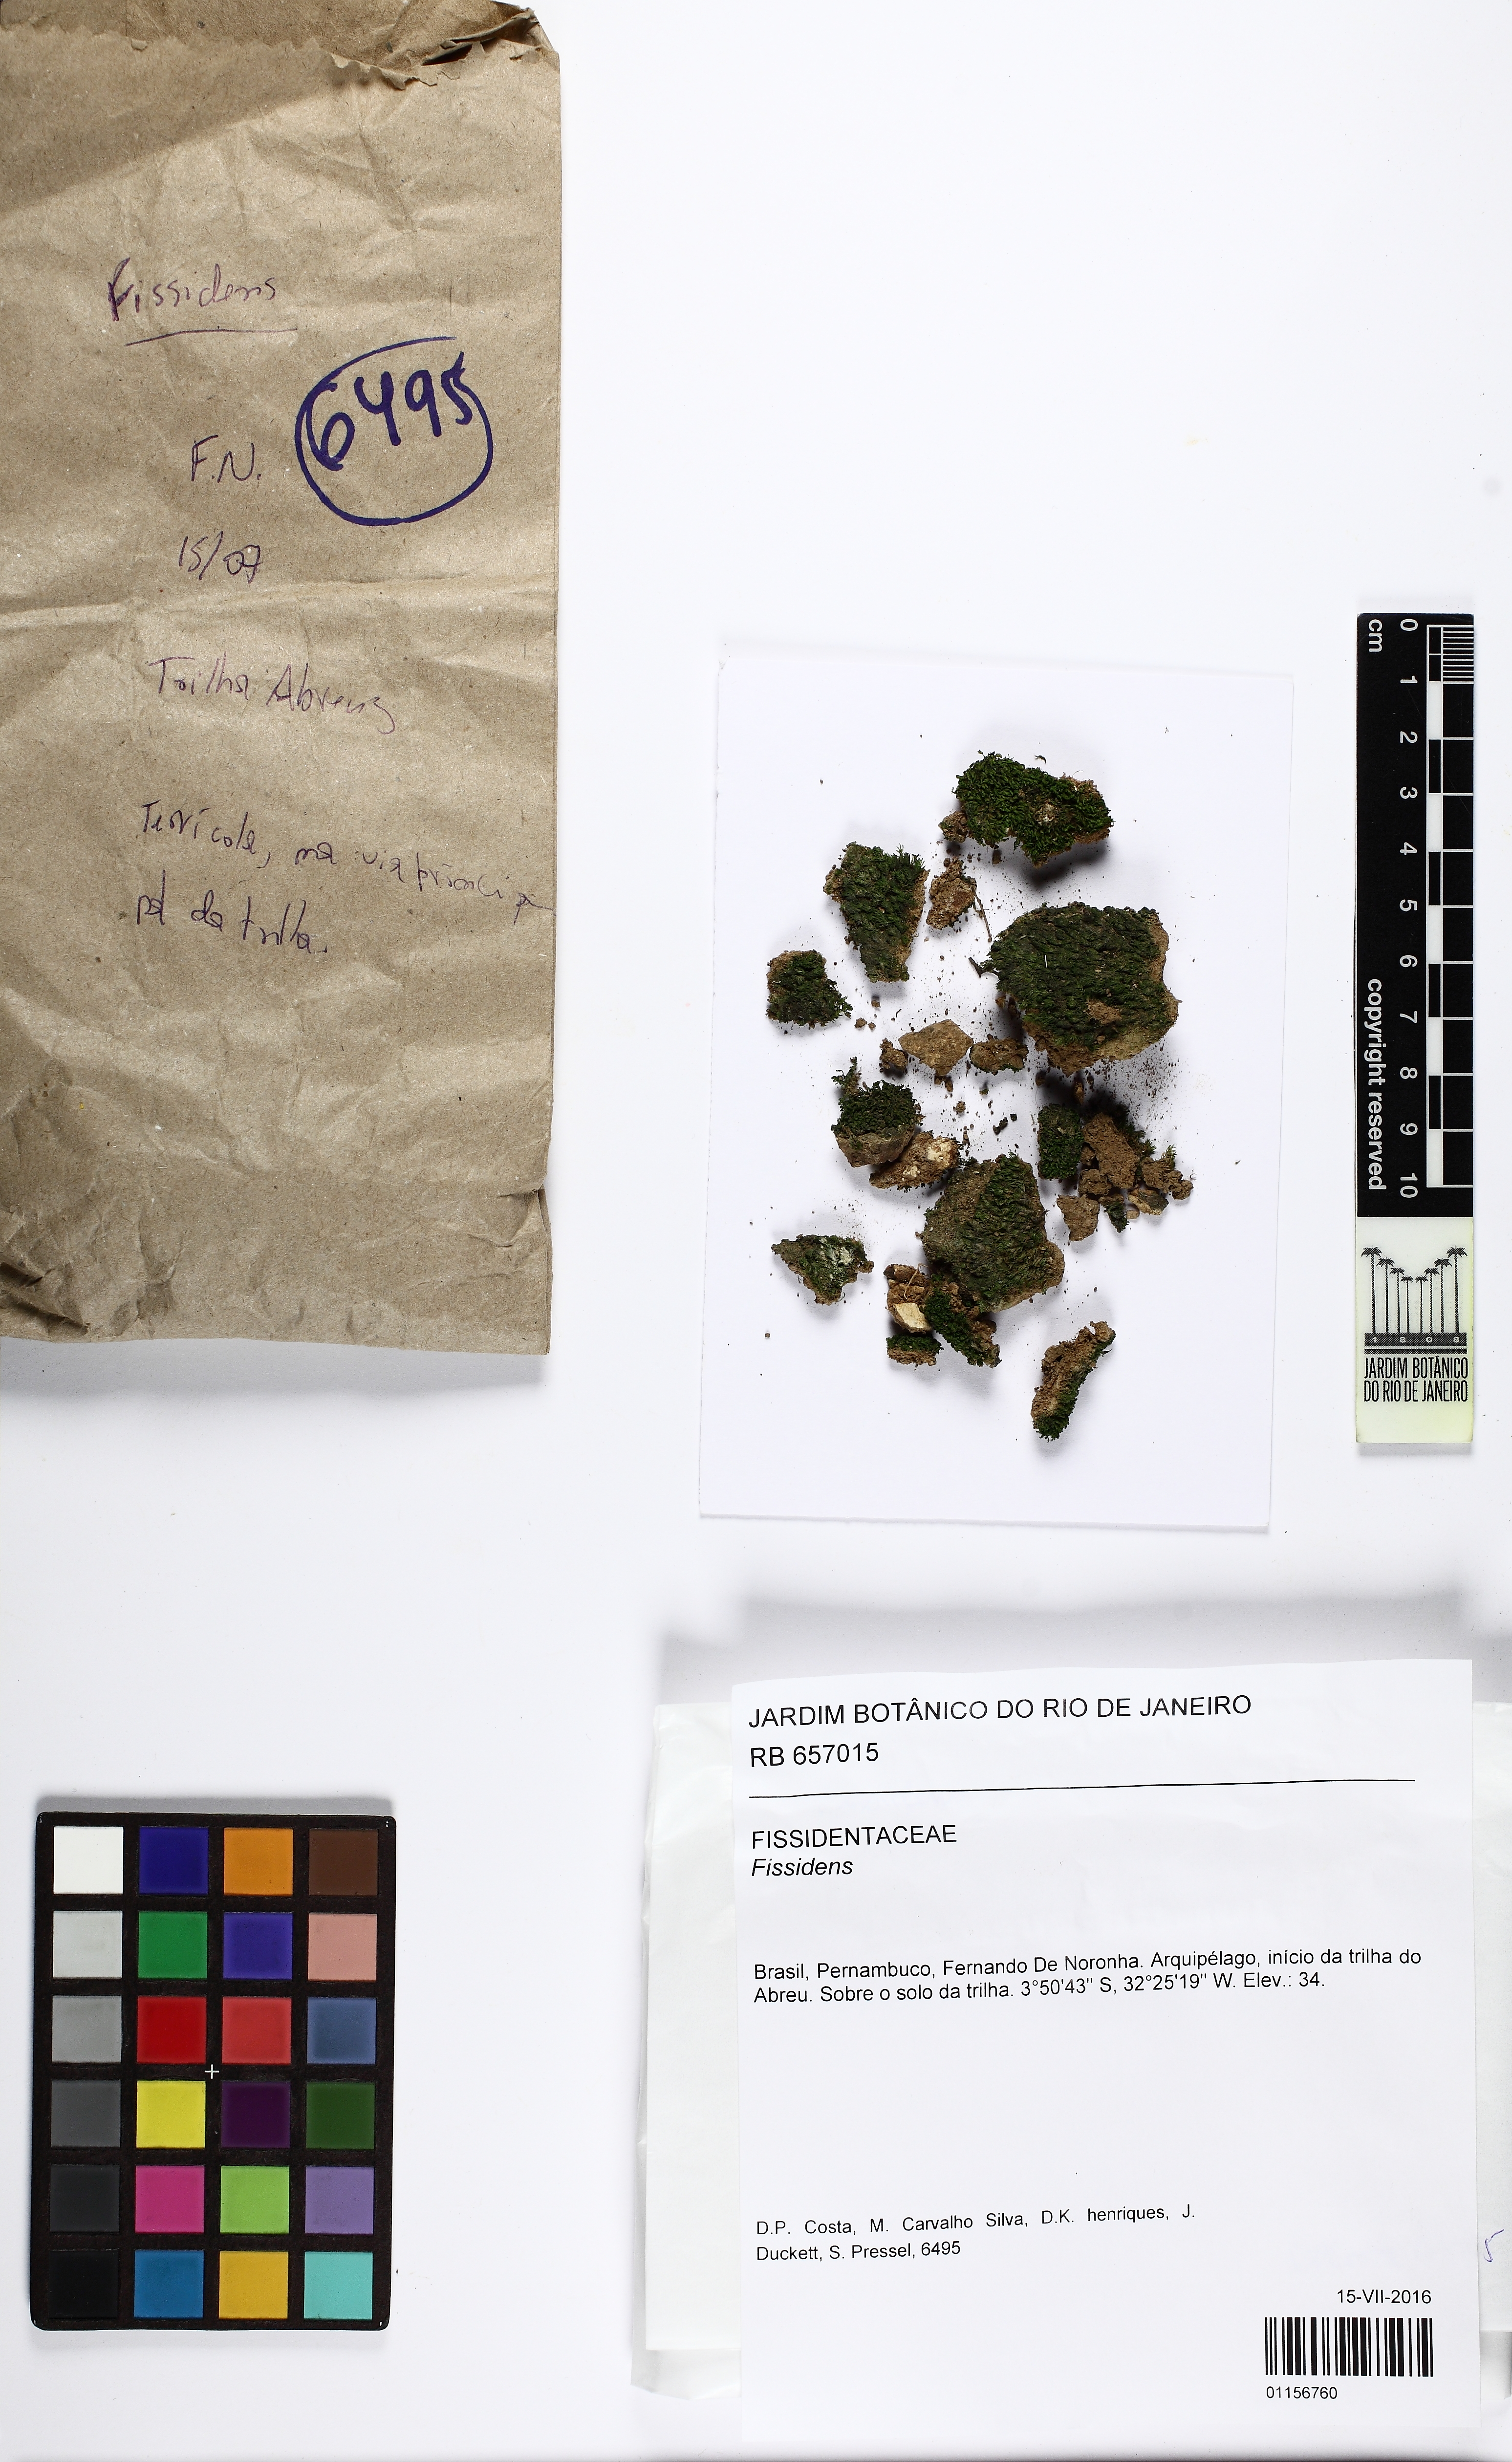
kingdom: Plantae
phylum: Bryophyta
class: Bryopsida
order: Dicranales
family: Fissidentaceae
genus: Fissidens
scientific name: Fissidens
